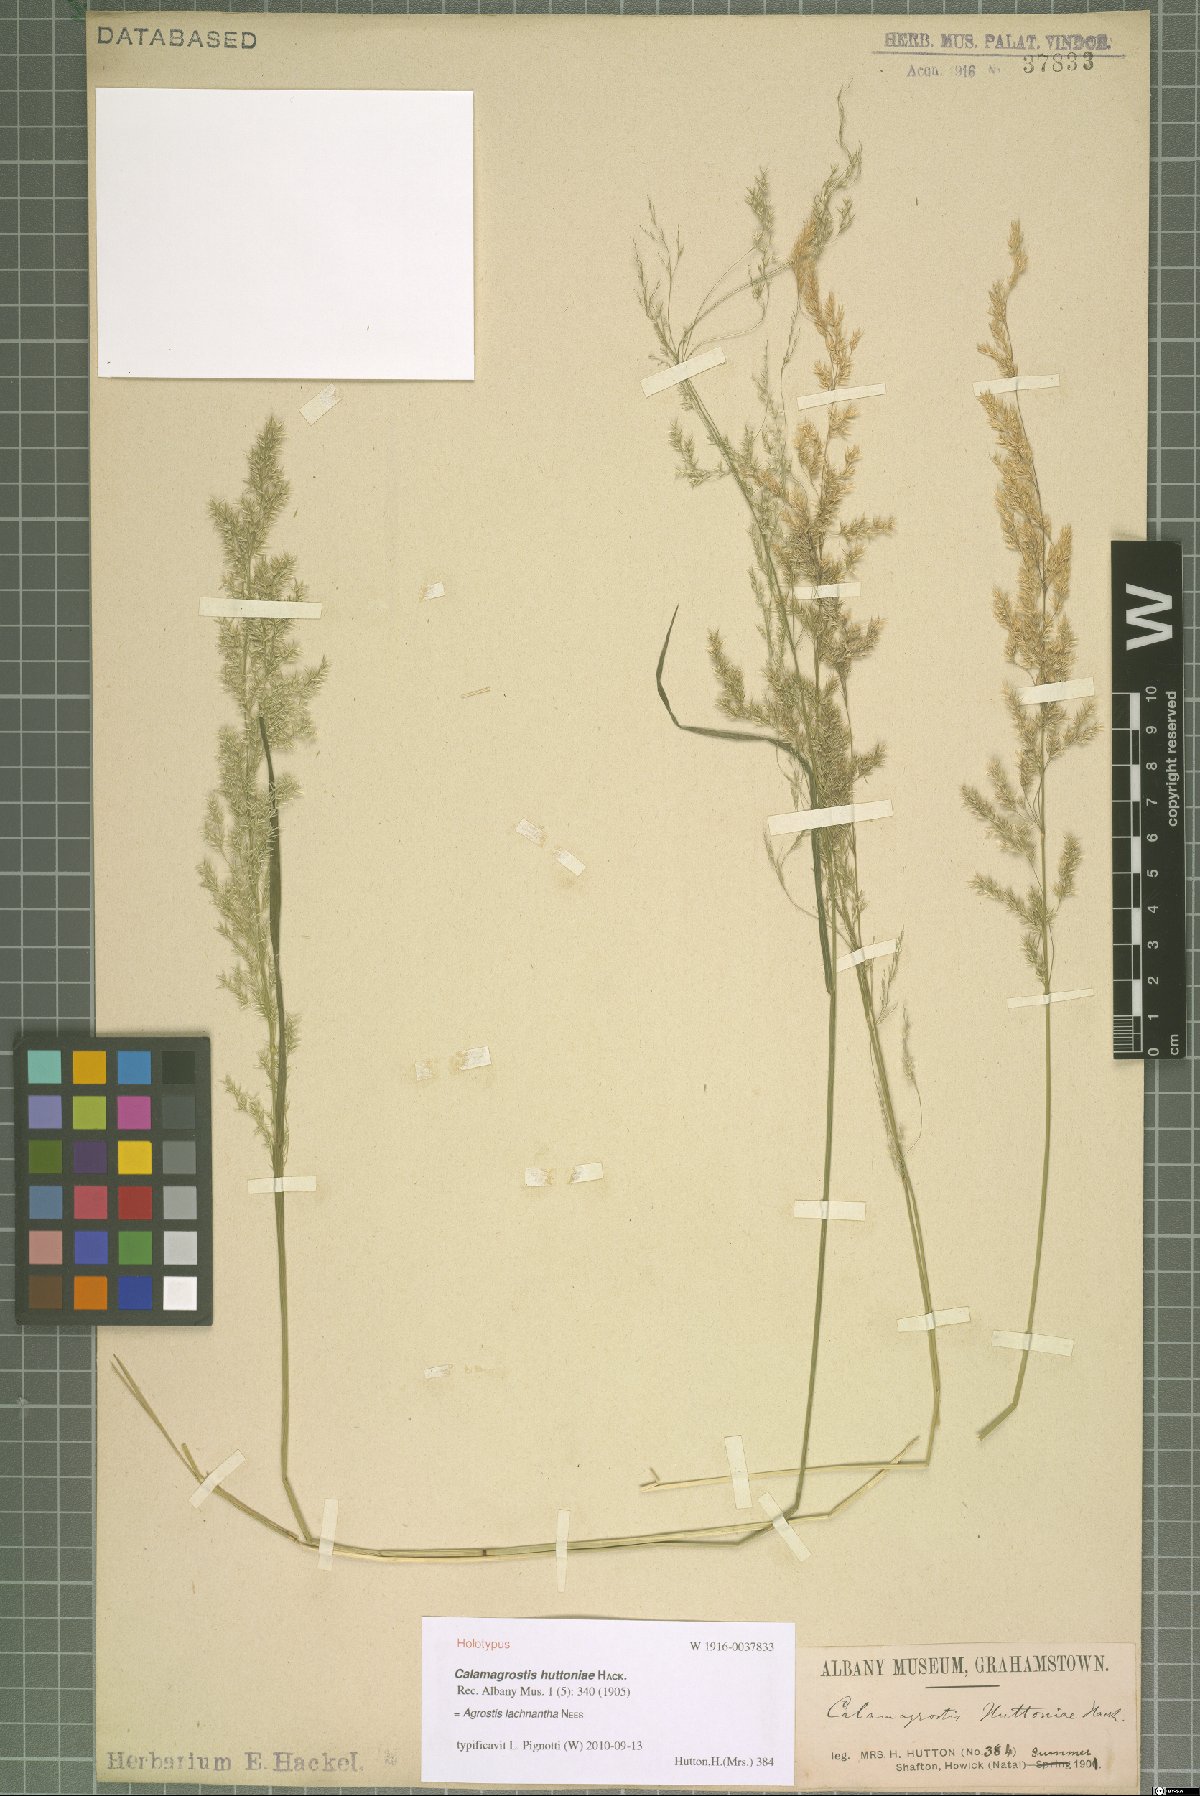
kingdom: Plantae
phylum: Tracheophyta
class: Liliopsida
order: Poales
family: Poaceae
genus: Lachnagrostis
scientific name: Lachnagrostis lachnantha
